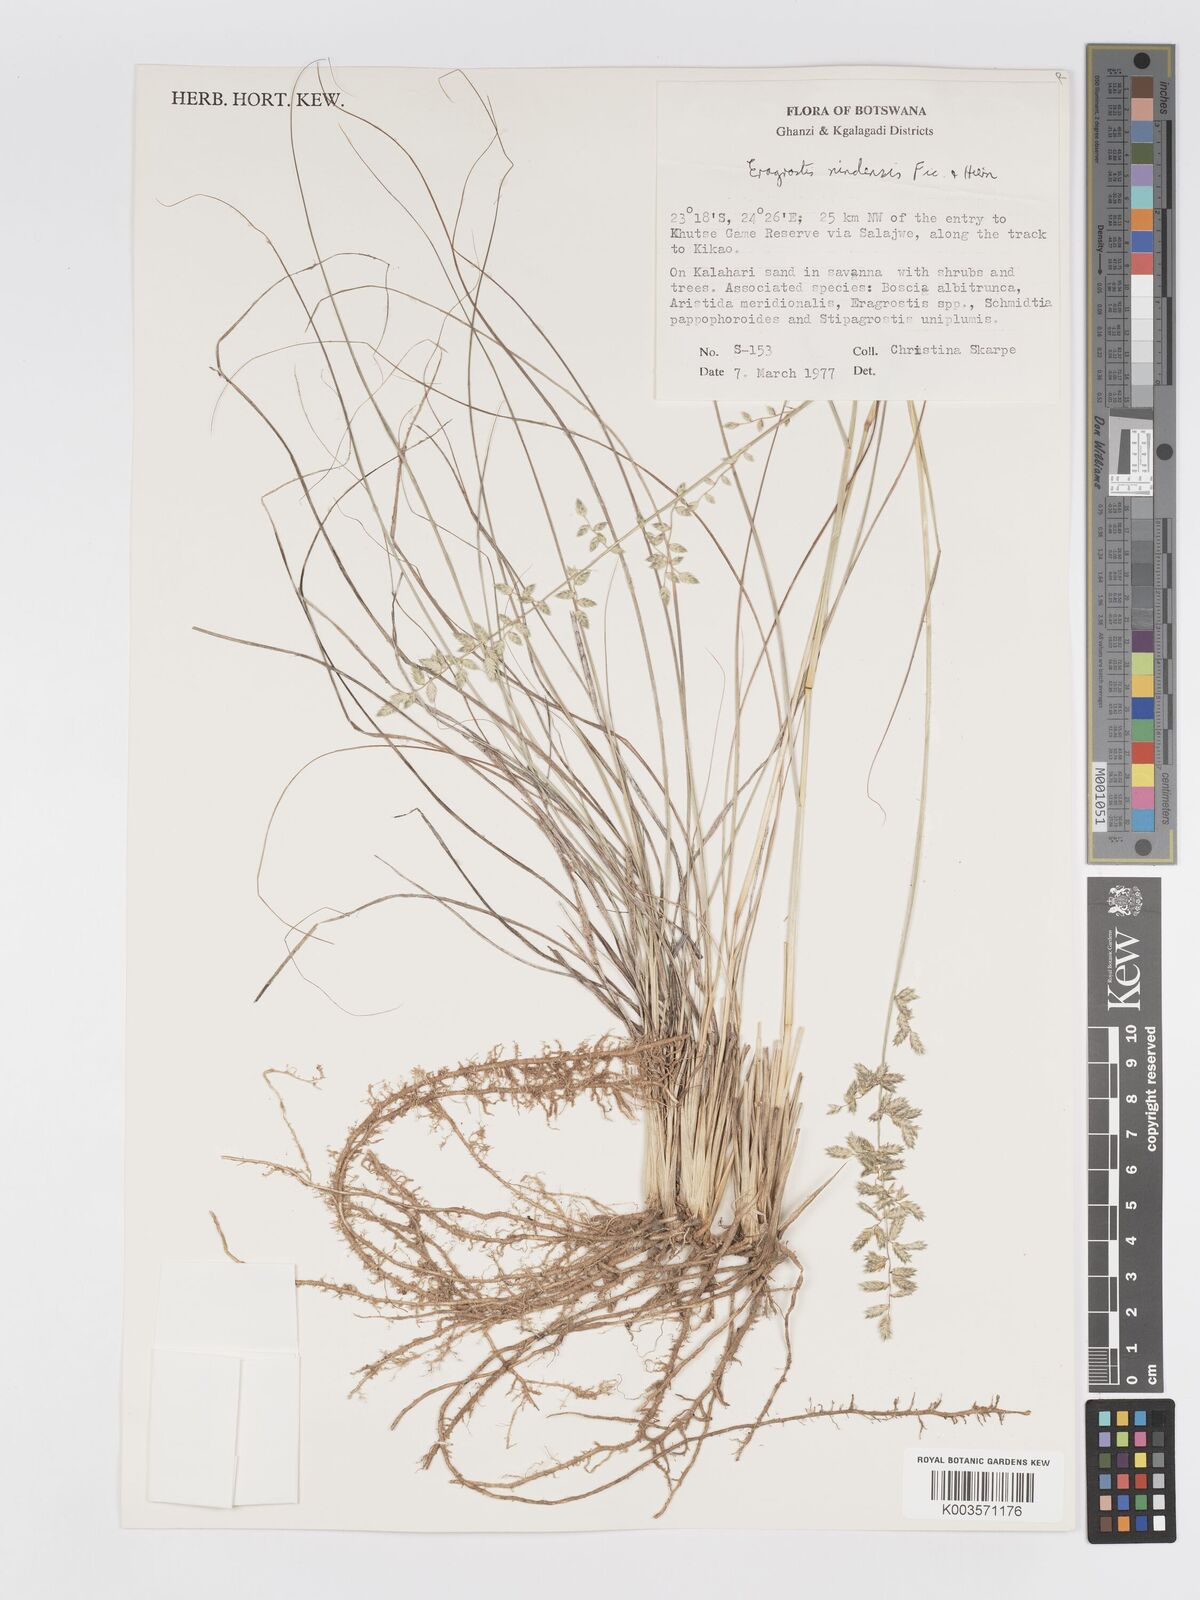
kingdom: Plantae
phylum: Tracheophyta
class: Liliopsida
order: Poales
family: Poaceae
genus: Eragrostis
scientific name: Eragrostis nindensis
